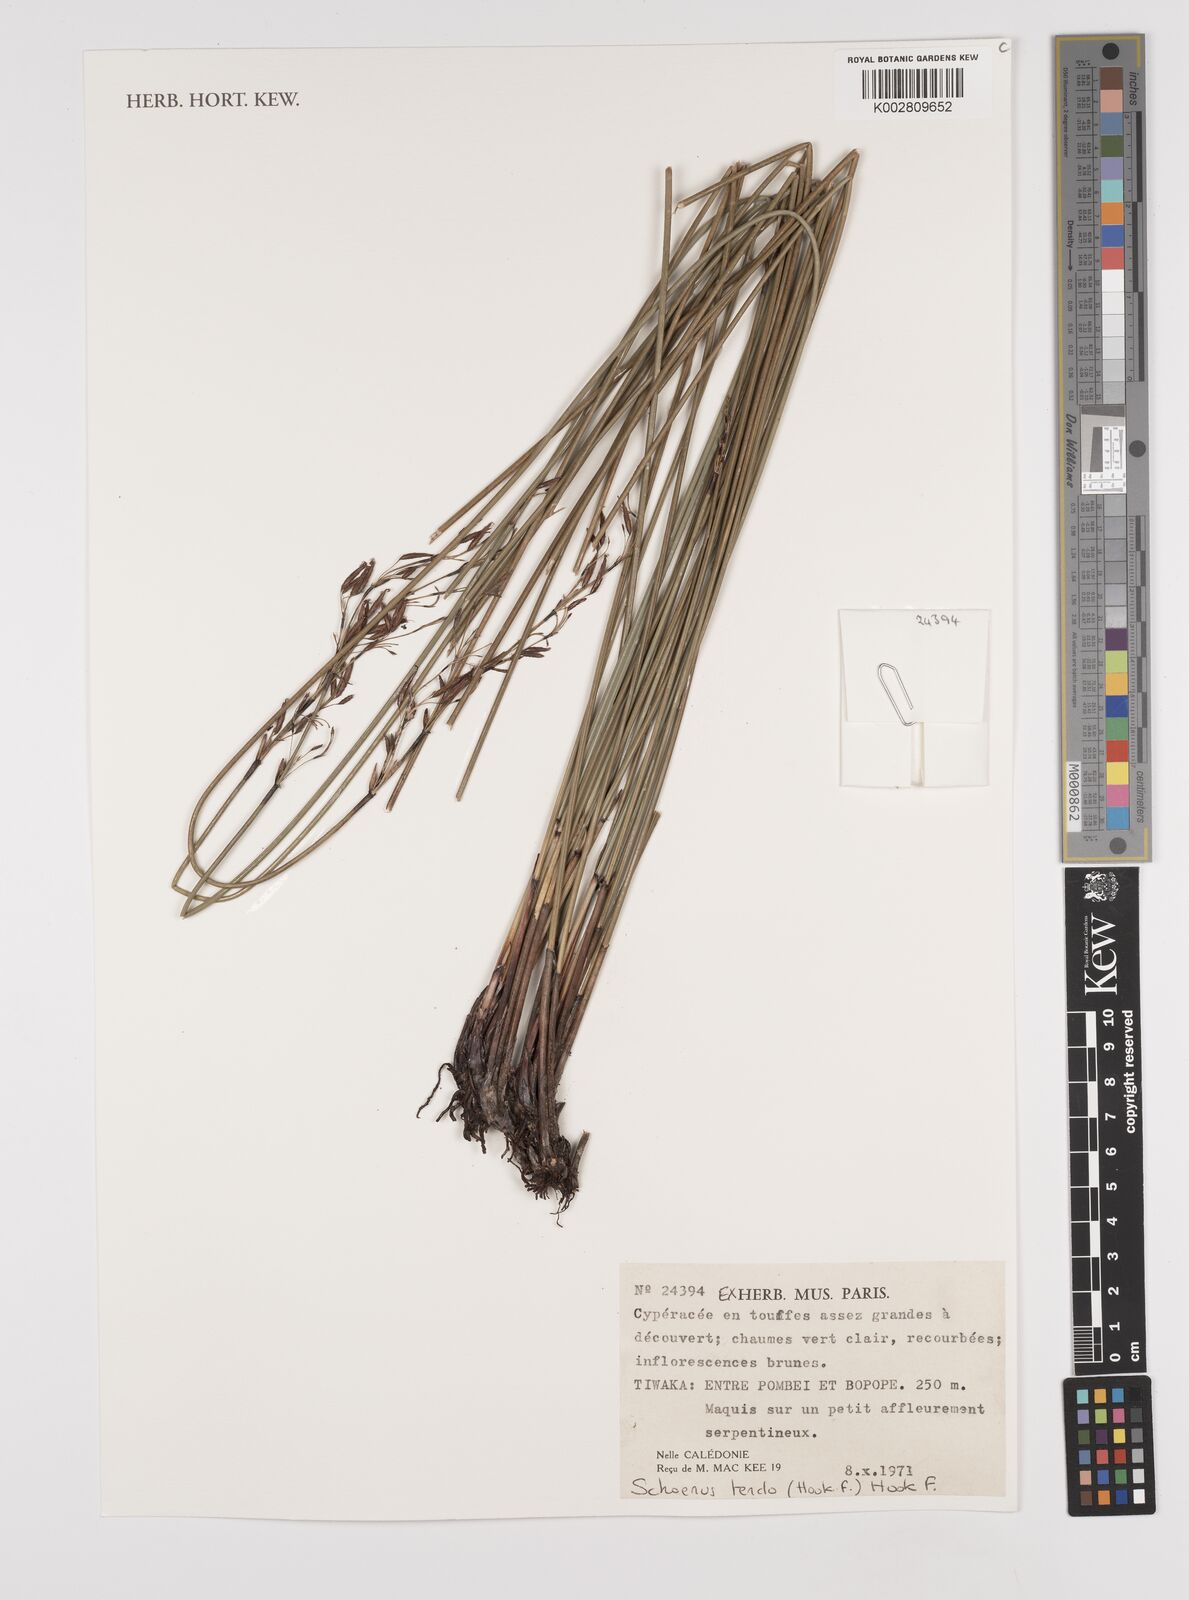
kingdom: Plantae
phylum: Tracheophyta
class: Liliopsida
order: Poales
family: Cyperaceae
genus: Schoenus
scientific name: Schoenus tendo
